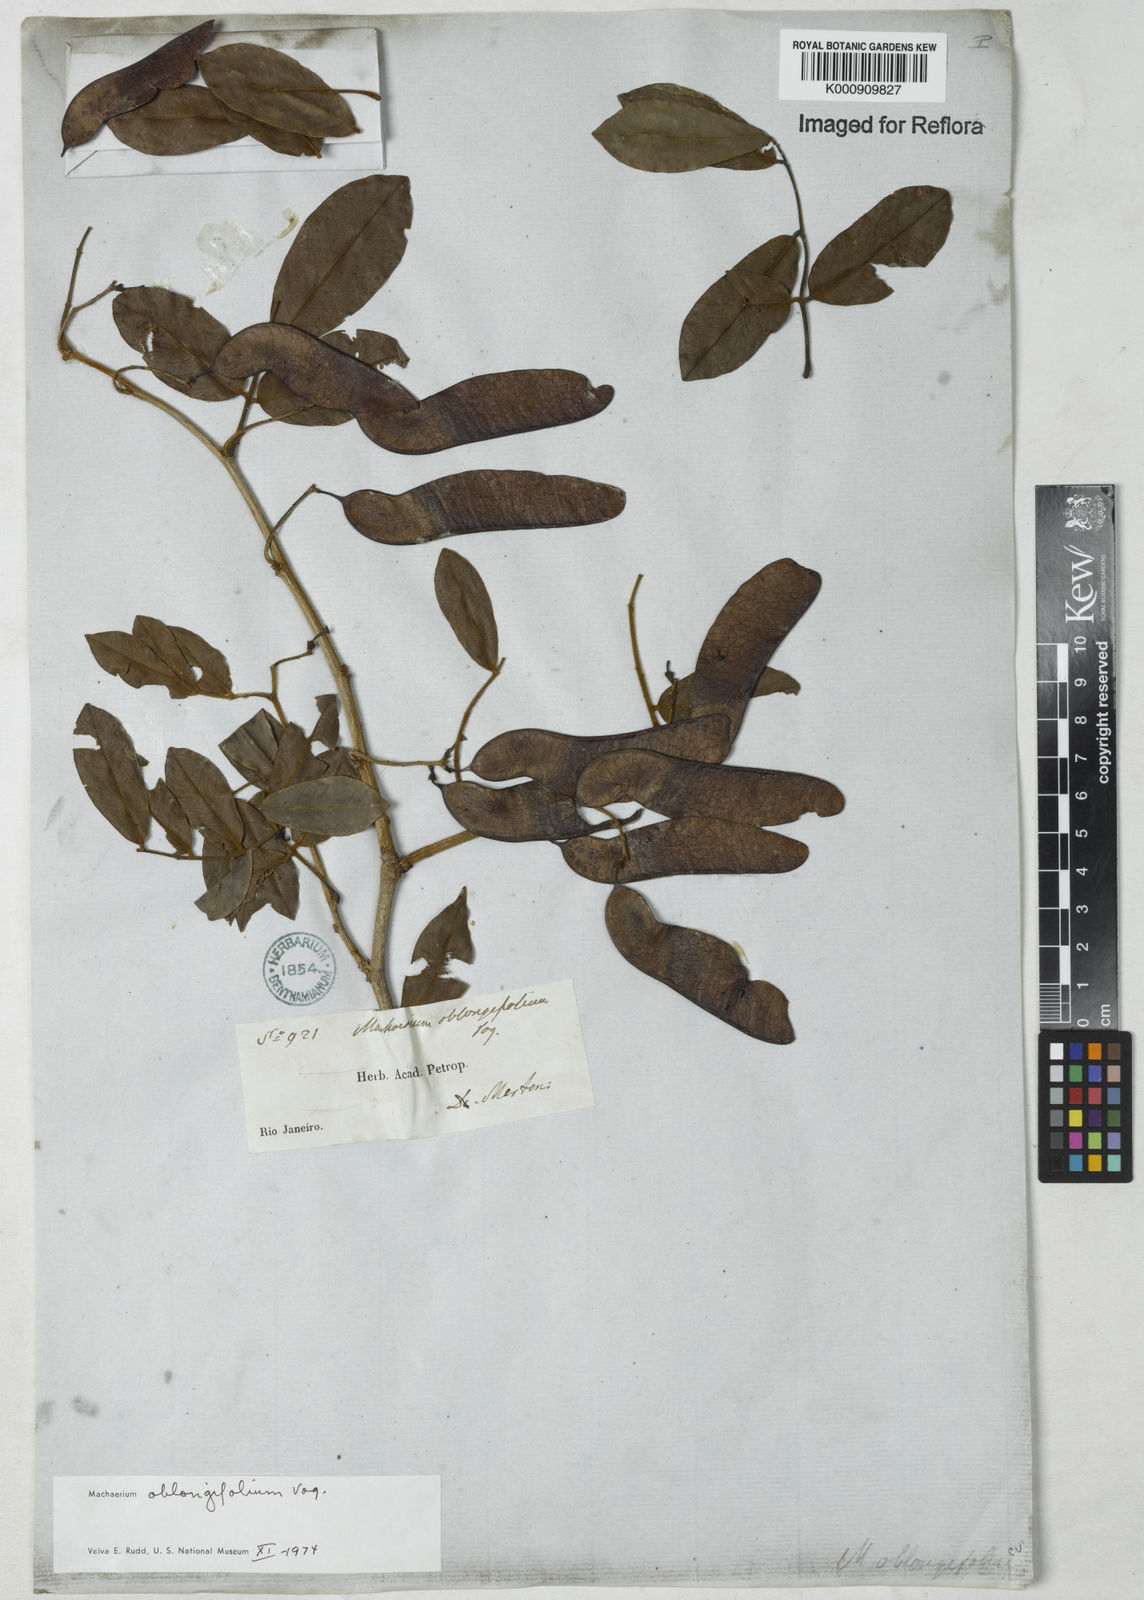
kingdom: Plantae
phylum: Tracheophyta
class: Magnoliopsida
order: Fabales
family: Fabaceae
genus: Machaerium
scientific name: Machaerium oblongifolium
